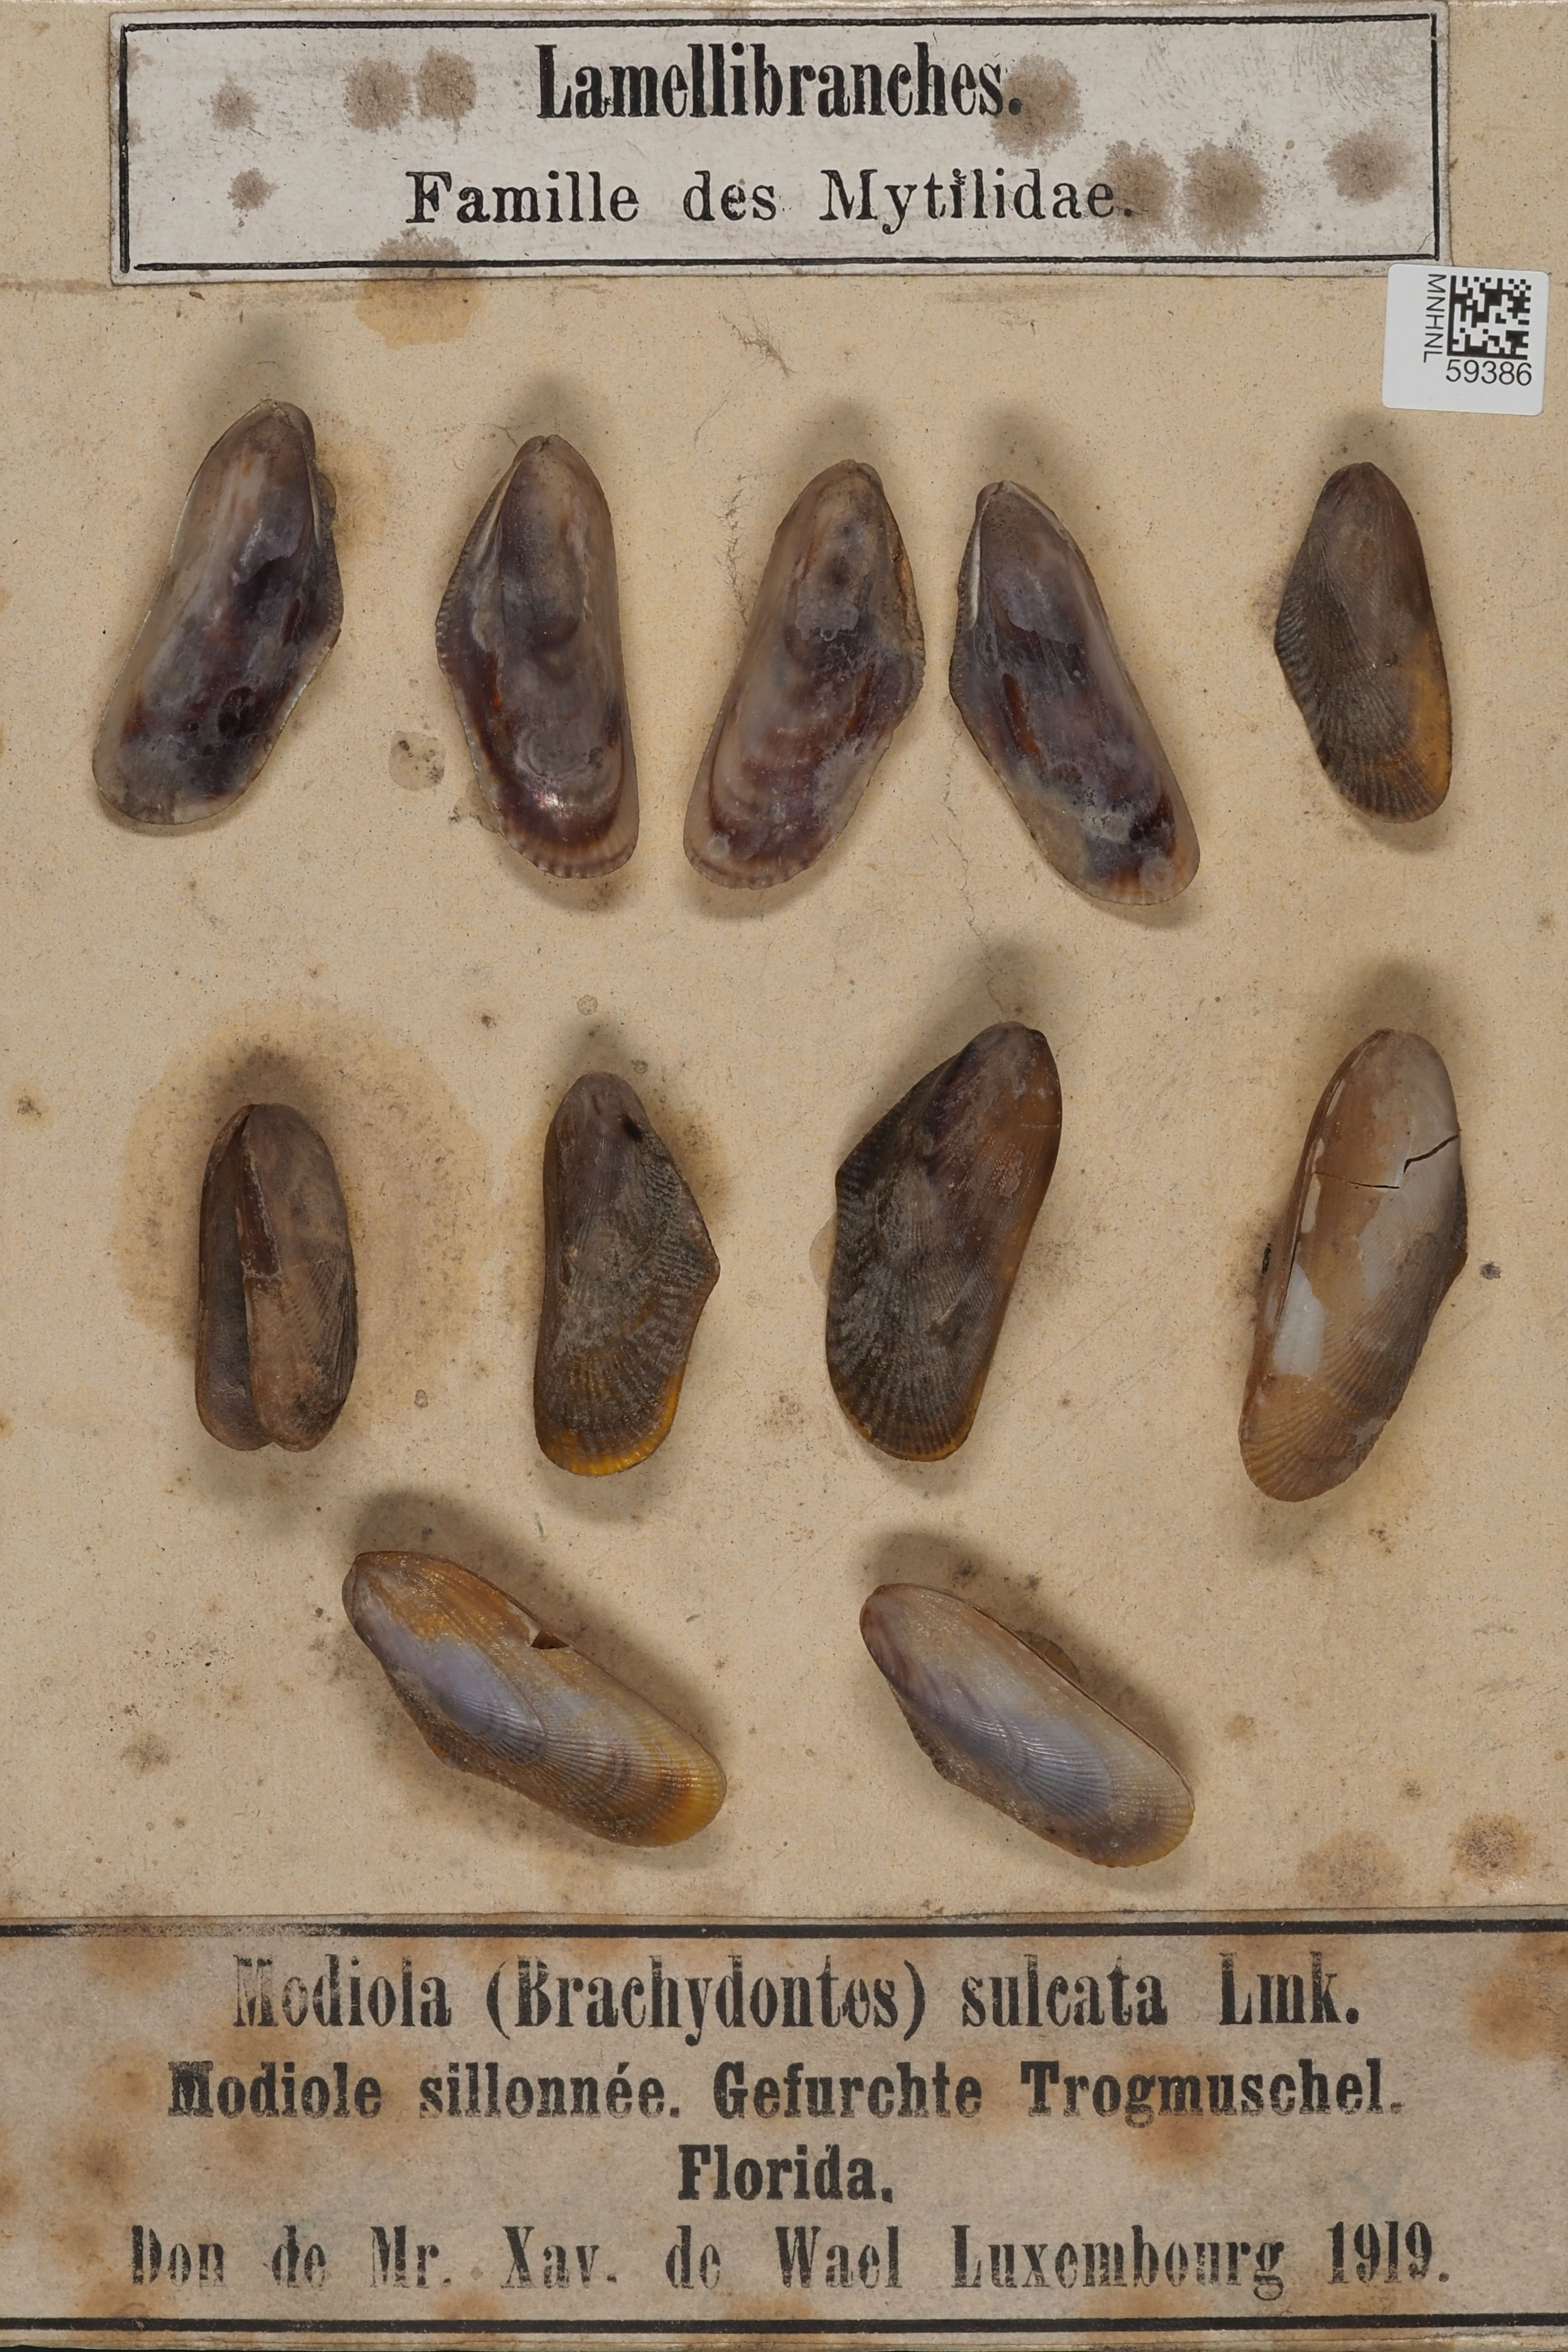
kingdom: Animalia
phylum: Mollusca
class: Bivalvia
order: Mytilida
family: Mytilidae
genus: Brachidontes
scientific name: Brachidontes modiolus
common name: Yellow mussel
